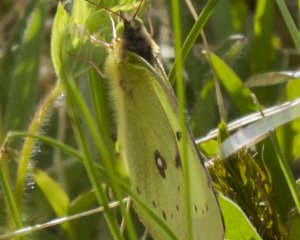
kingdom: Animalia
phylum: Arthropoda
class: Insecta
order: Lepidoptera
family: Pieridae
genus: Colias
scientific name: Colias philodice
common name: Clouded Sulphur
